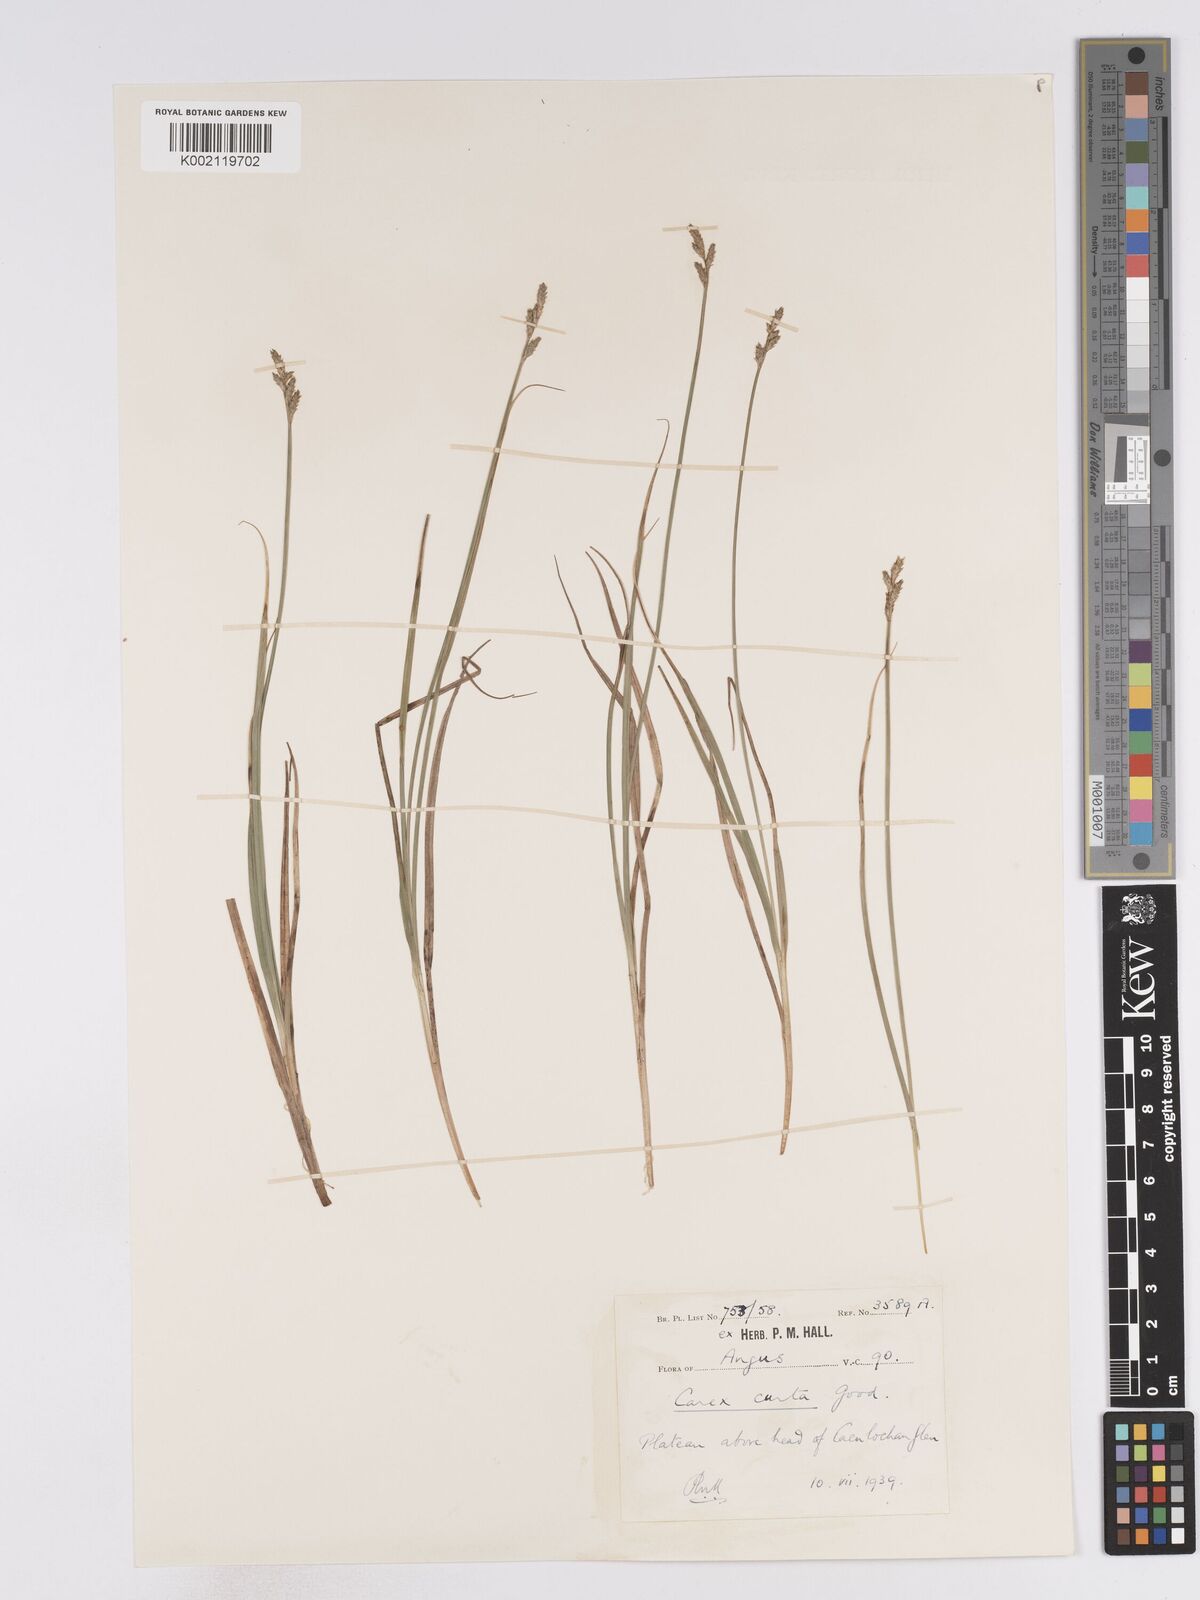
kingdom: Plantae
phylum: Tracheophyta
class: Liliopsida
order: Poales
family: Cyperaceae
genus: Carex
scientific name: Carex curta
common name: White sedge
